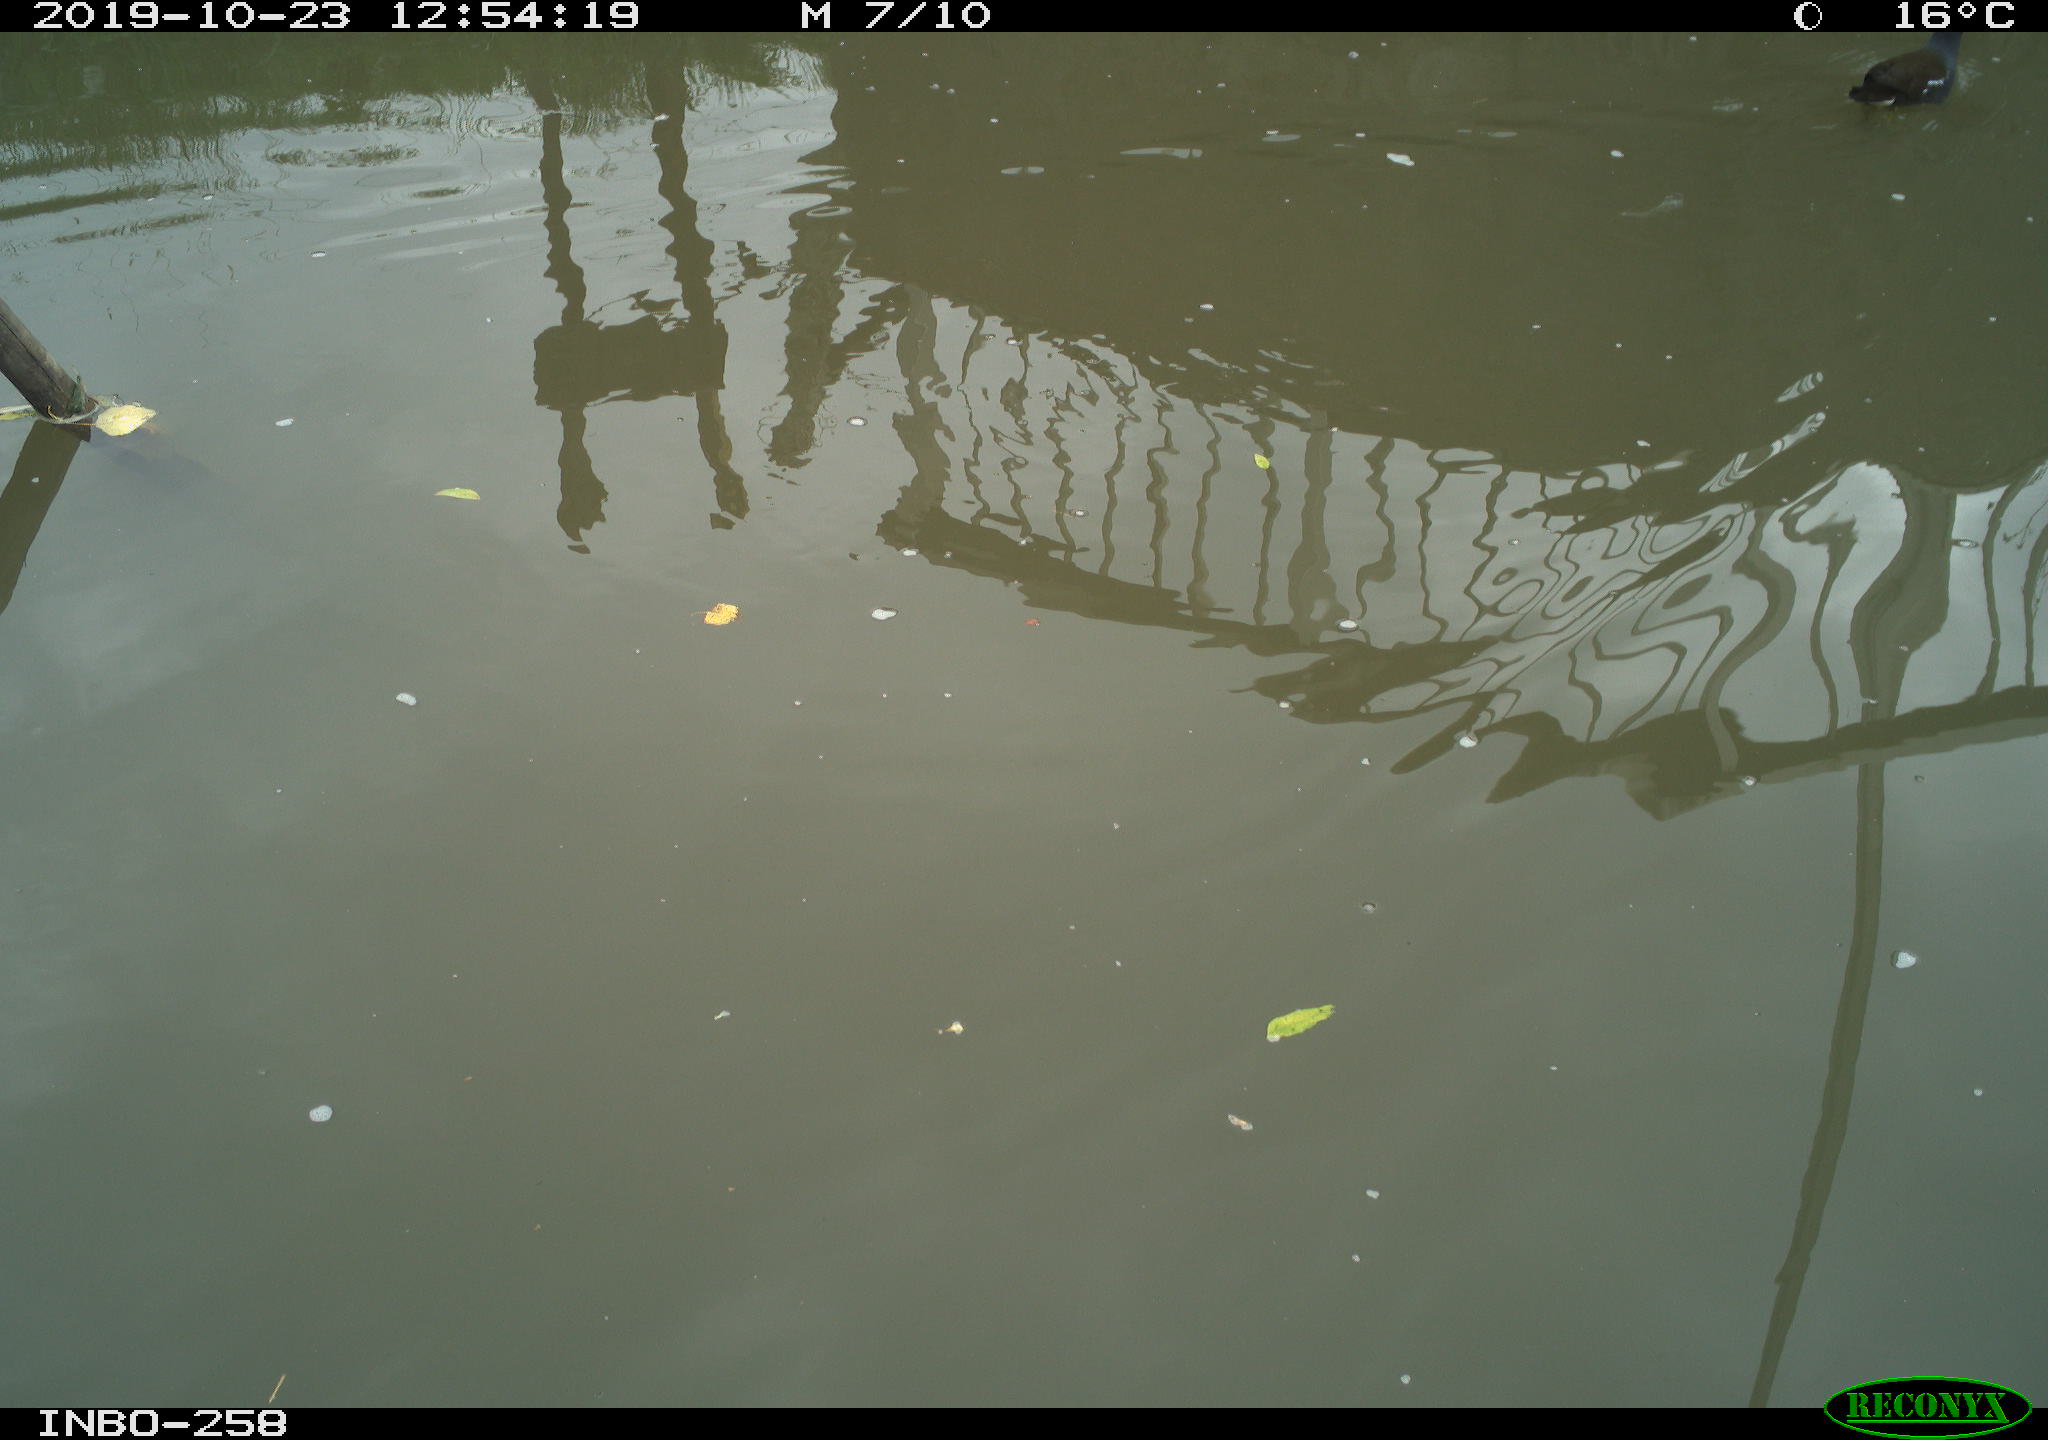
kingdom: Animalia
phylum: Chordata
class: Aves
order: Gruiformes
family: Rallidae
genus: Gallinula
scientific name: Gallinula chloropus
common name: Common moorhen
